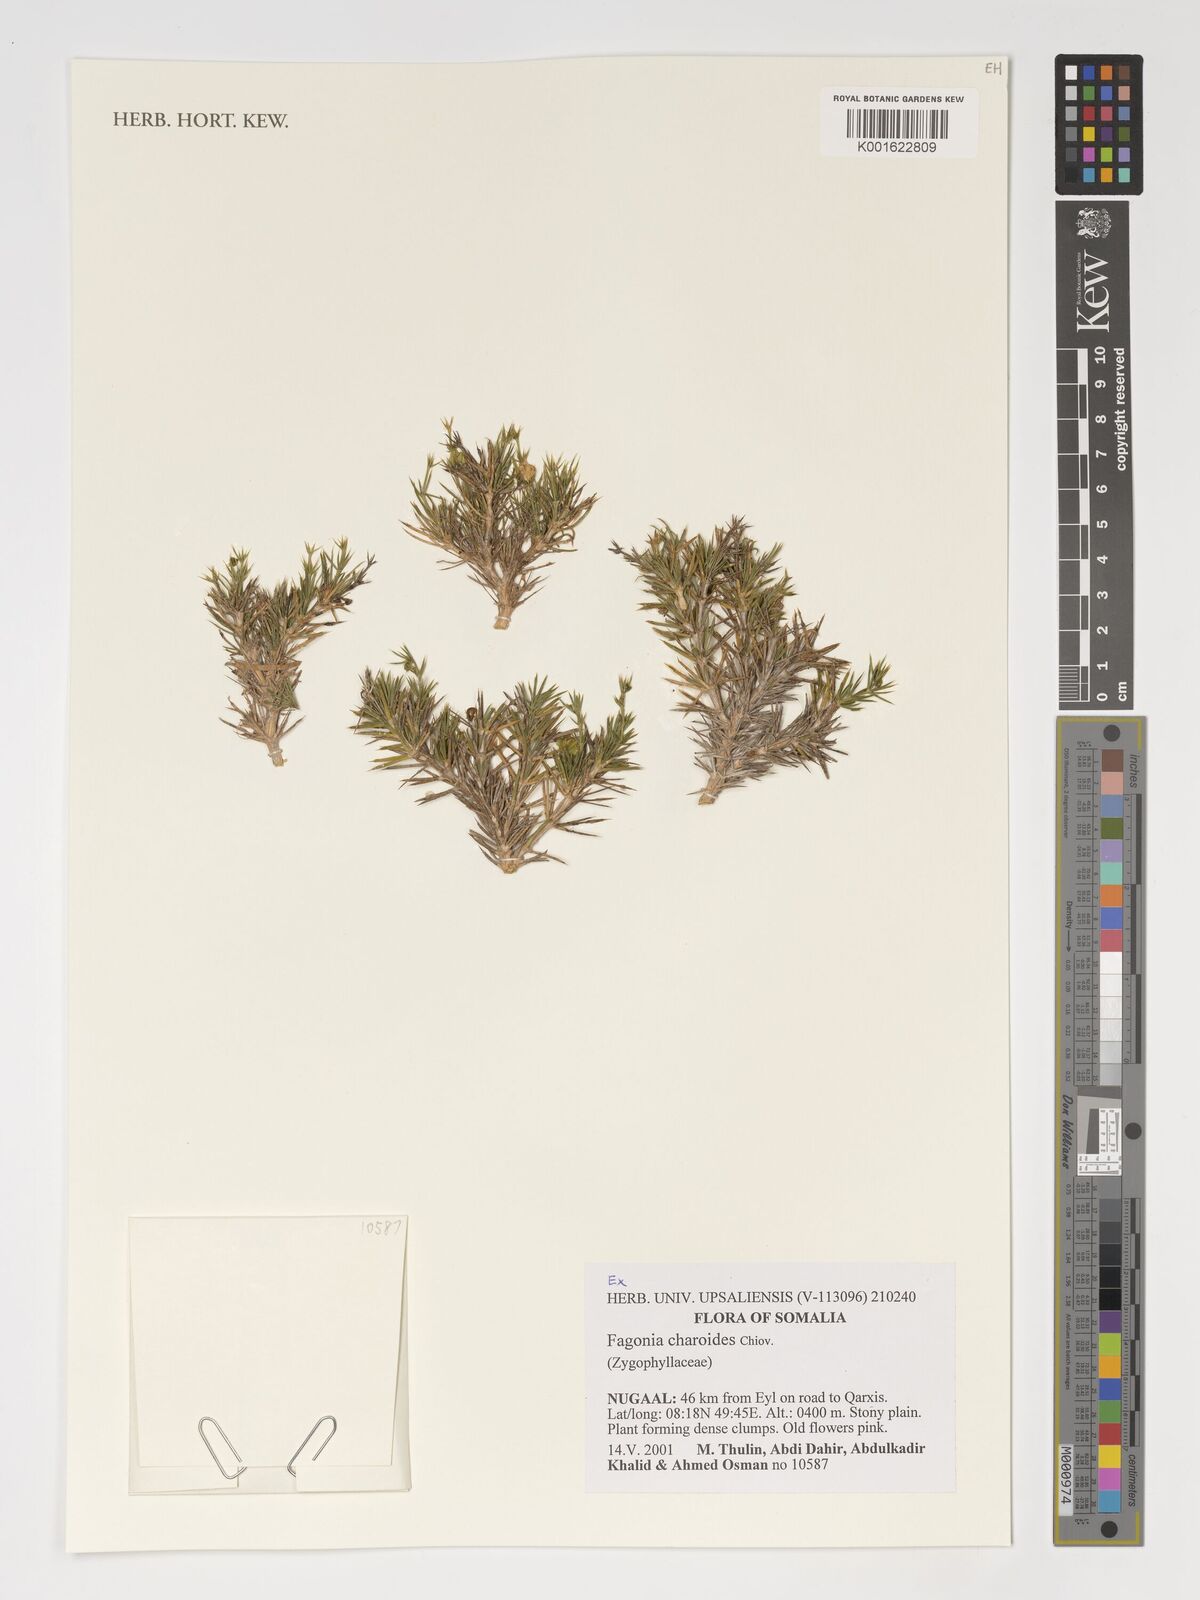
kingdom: Plantae
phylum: Tracheophyta
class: Magnoliopsida
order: Zygophyllales
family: Zygophyllaceae
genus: Fagonia
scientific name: Fagonia charoides
